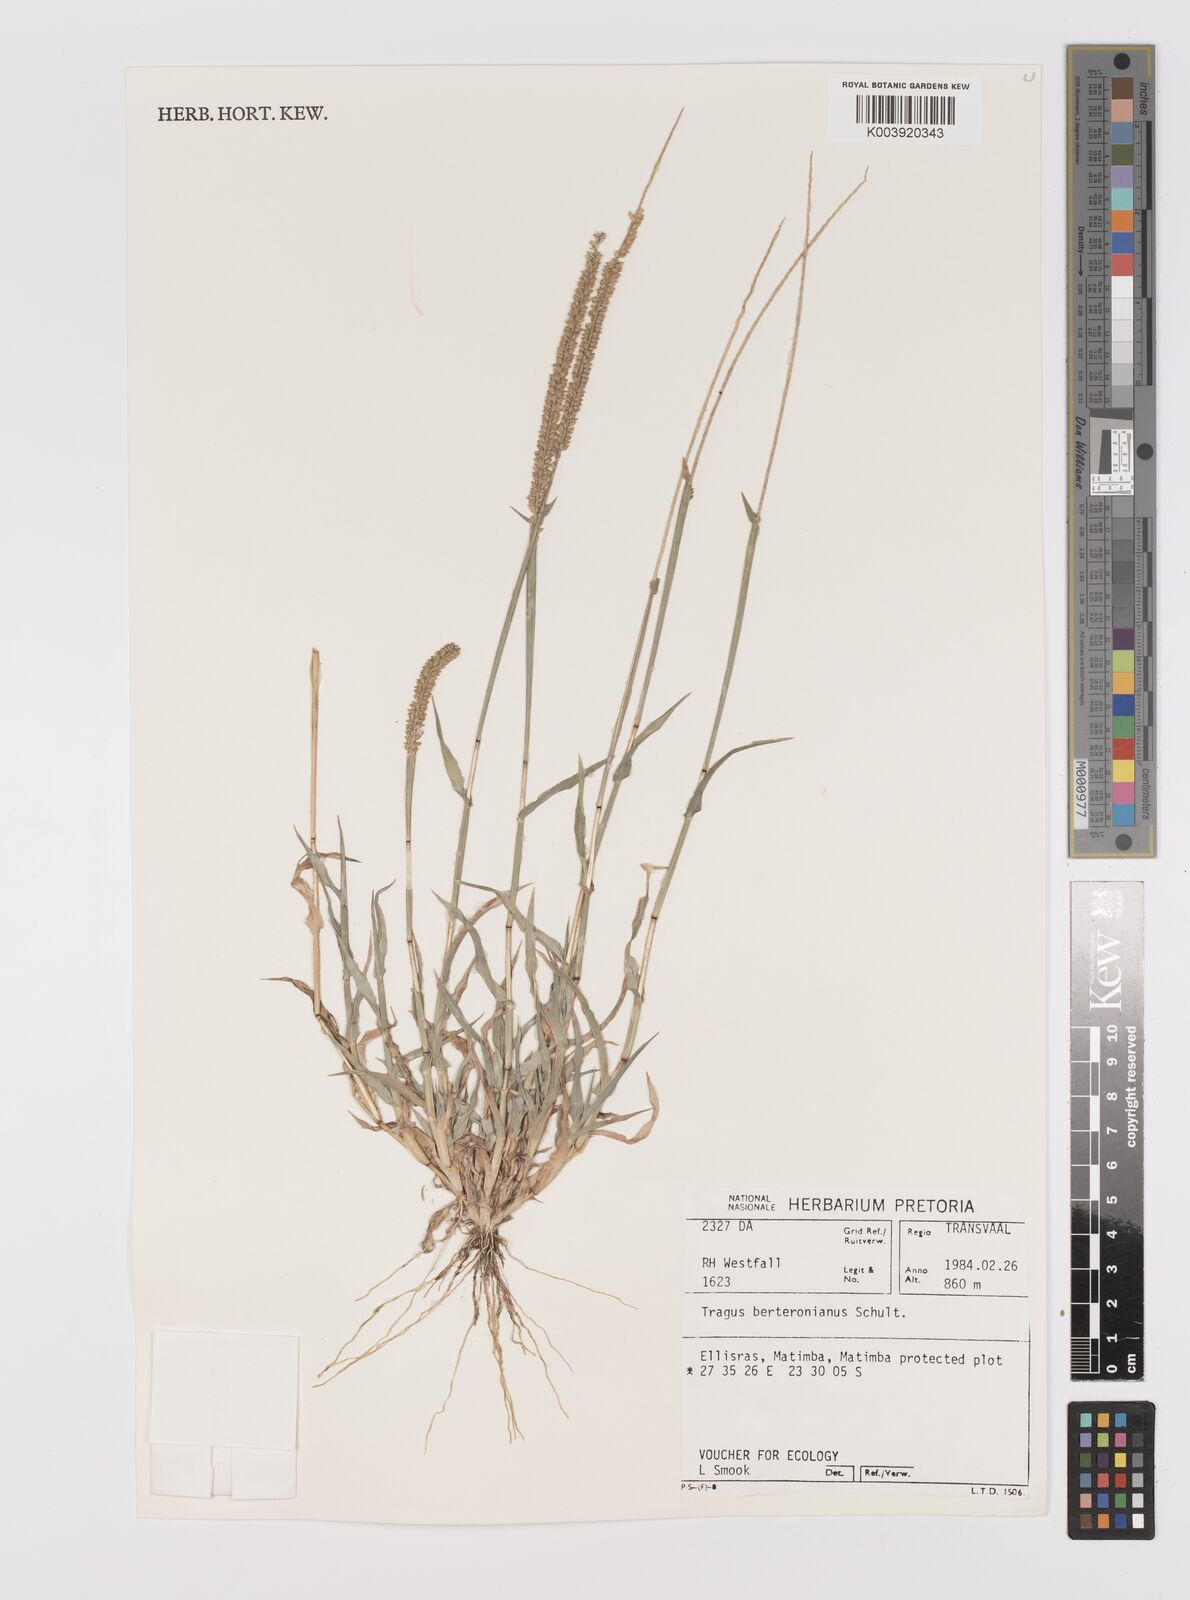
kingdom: Plantae
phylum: Tracheophyta
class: Liliopsida
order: Poales
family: Poaceae
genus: Tragus
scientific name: Tragus berteronianus
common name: African bur-grass
